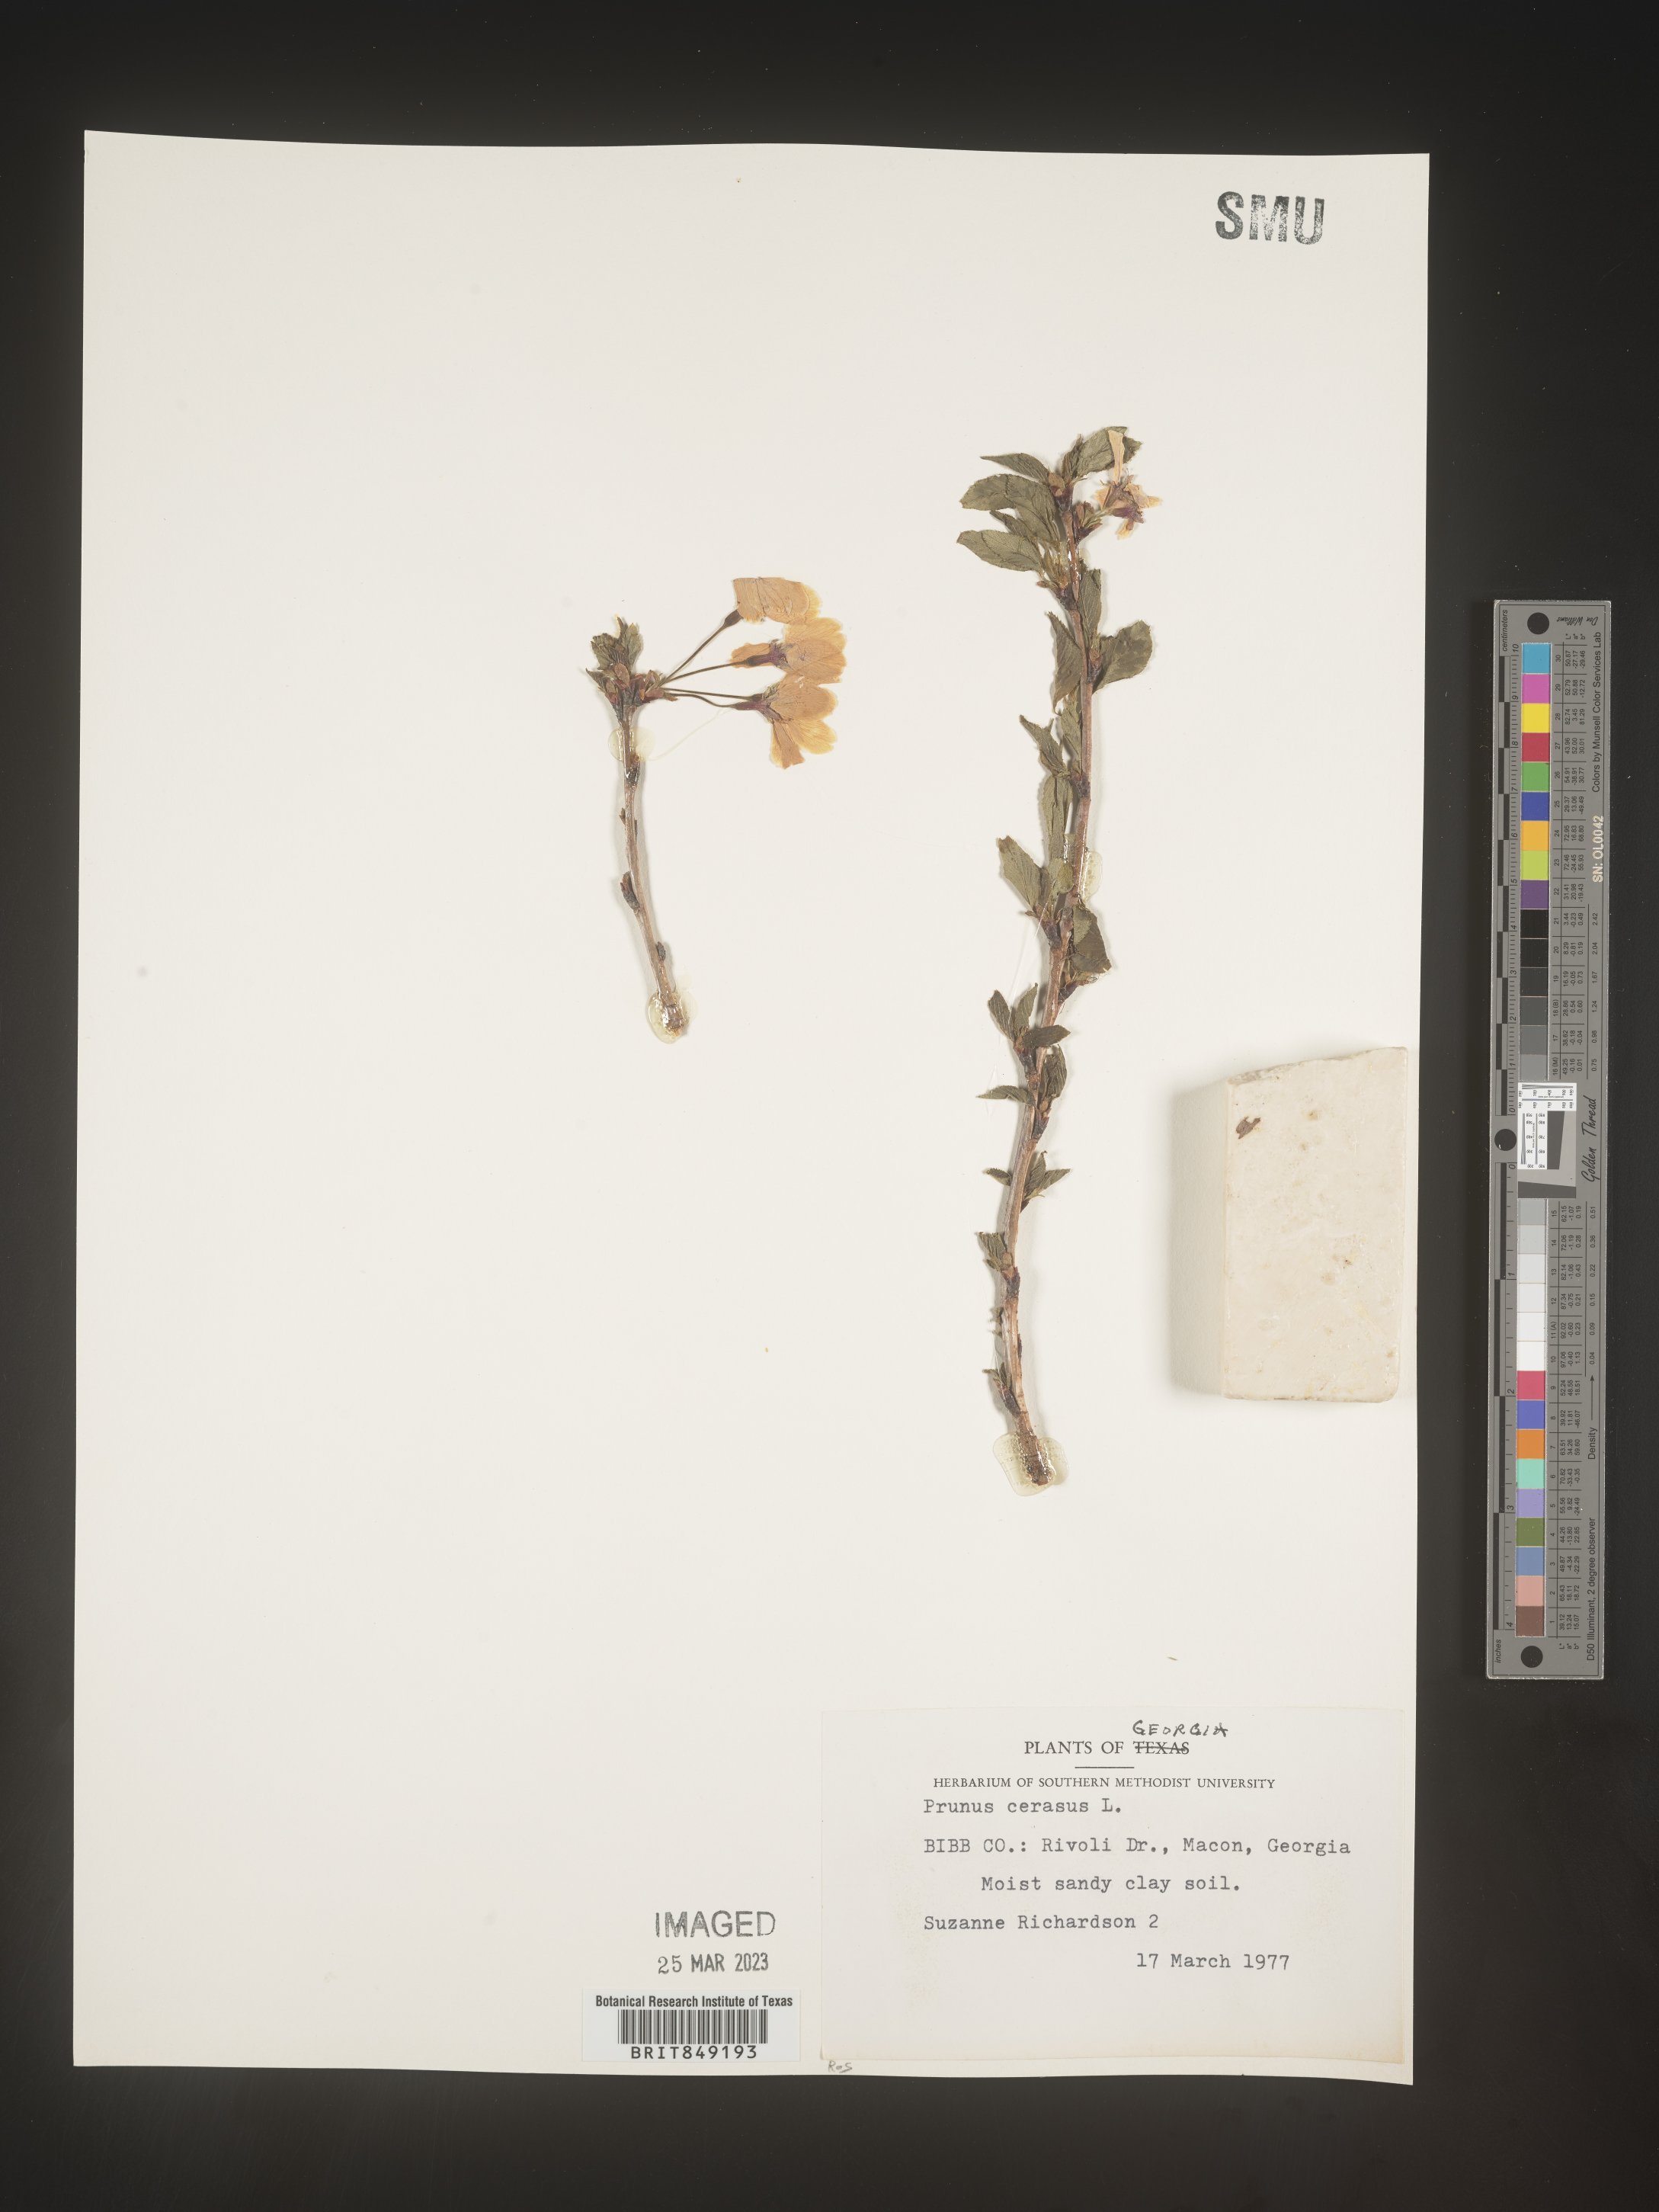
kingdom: Plantae
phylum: Tracheophyta
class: Magnoliopsida
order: Rosales
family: Rosaceae
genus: Prunus
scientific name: Prunus
